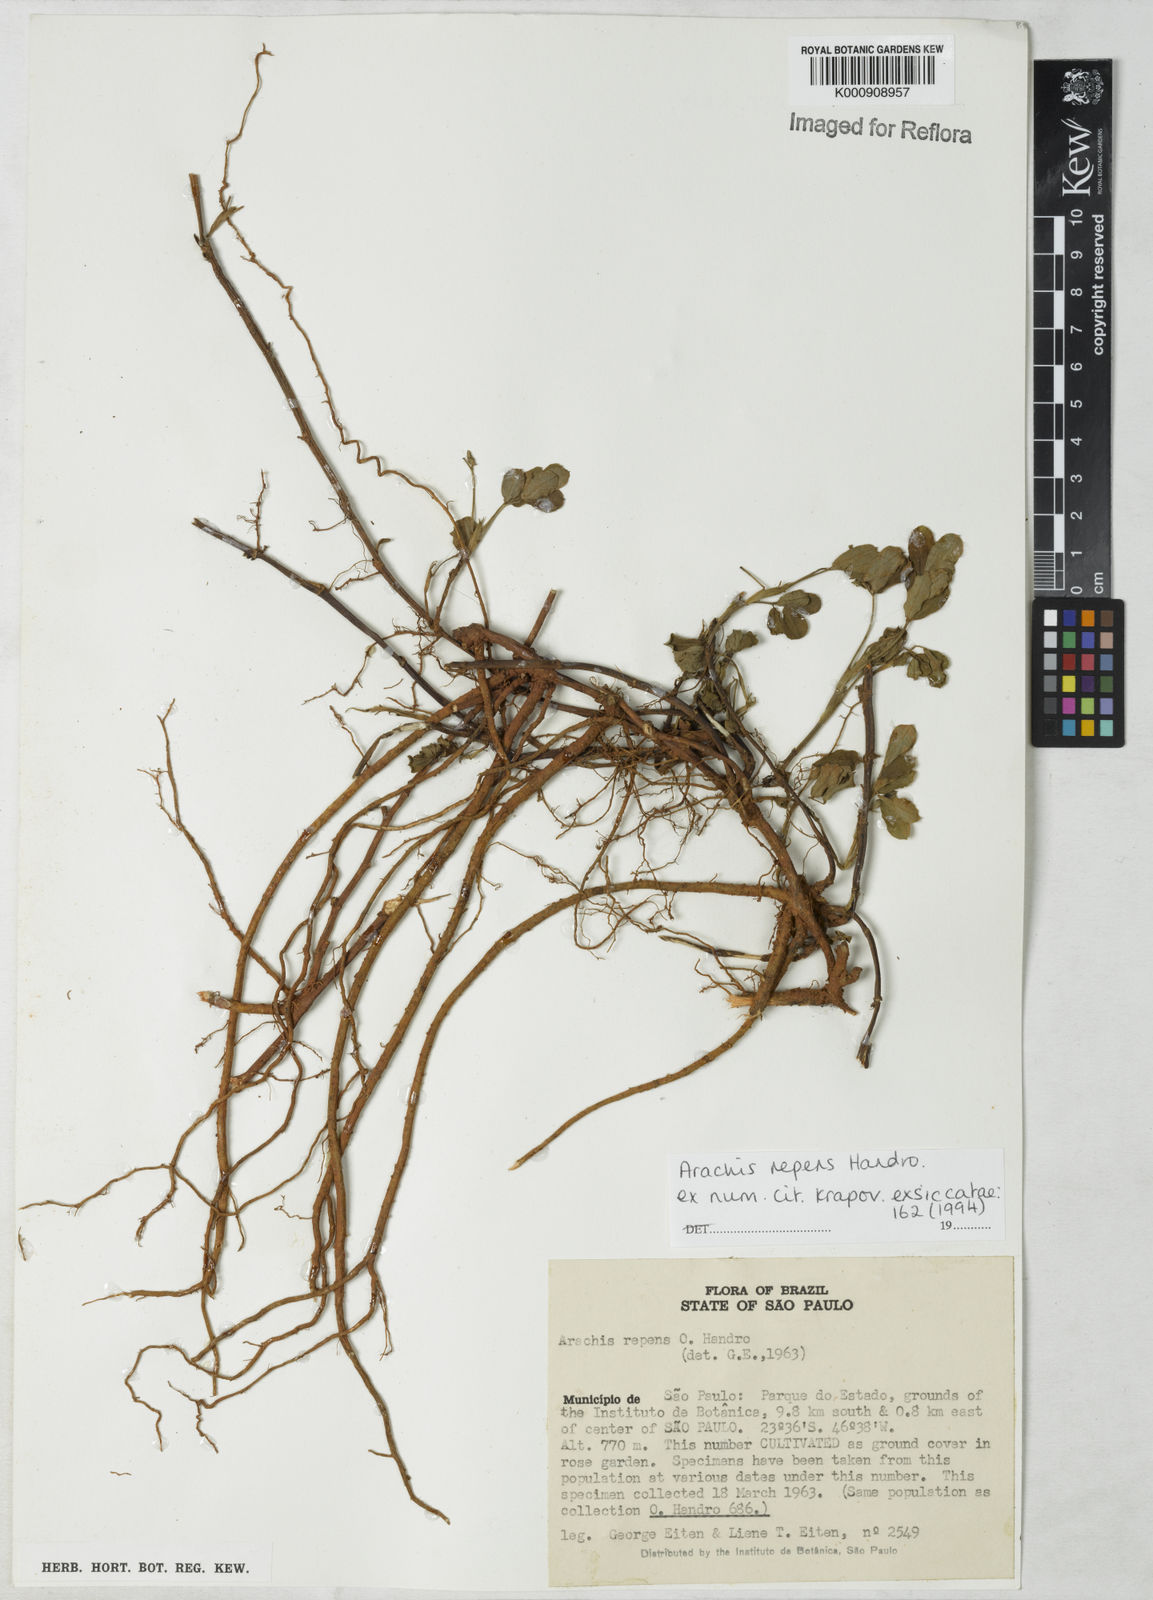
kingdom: Plantae
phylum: Tracheophyta
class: Magnoliopsida
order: Fabales
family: Fabaceae
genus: Arachis
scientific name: Arachis repens
